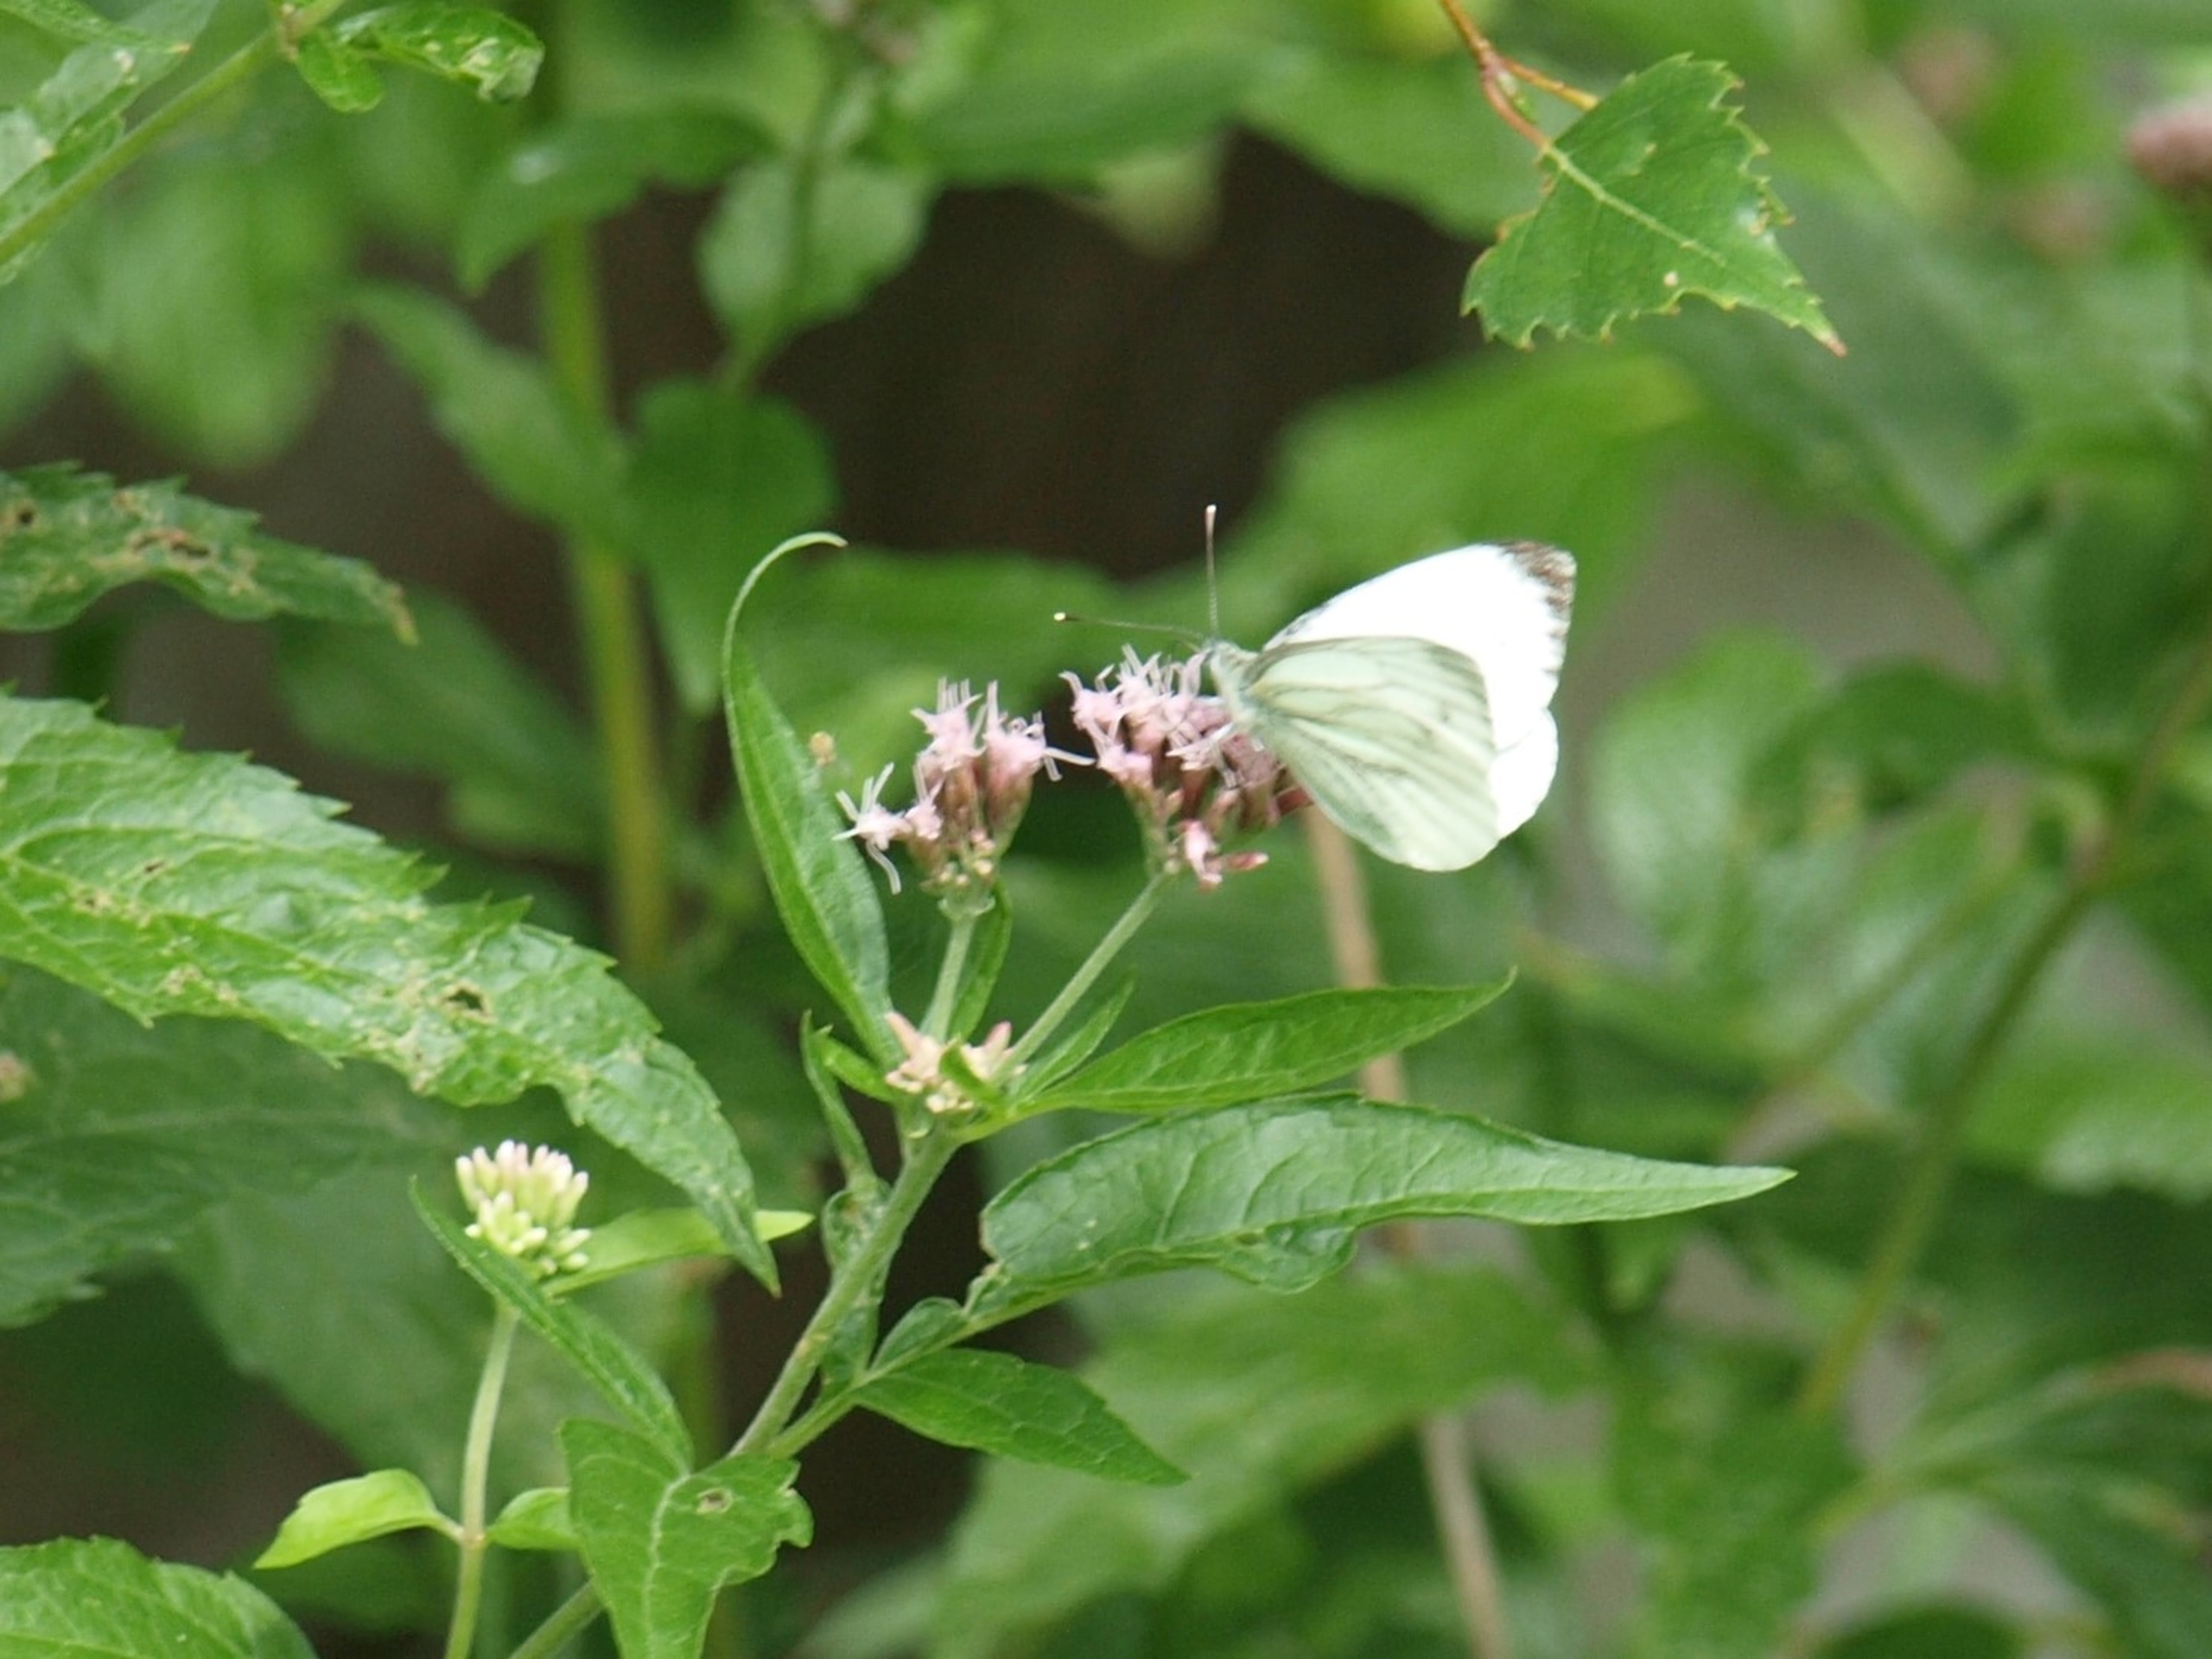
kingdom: Animalia
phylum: Arthropoda
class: Insecta
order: Lepidoptera
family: Pieridae
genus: Pieris
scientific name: Pieris napi
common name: Grønåret kålsommerfugl
